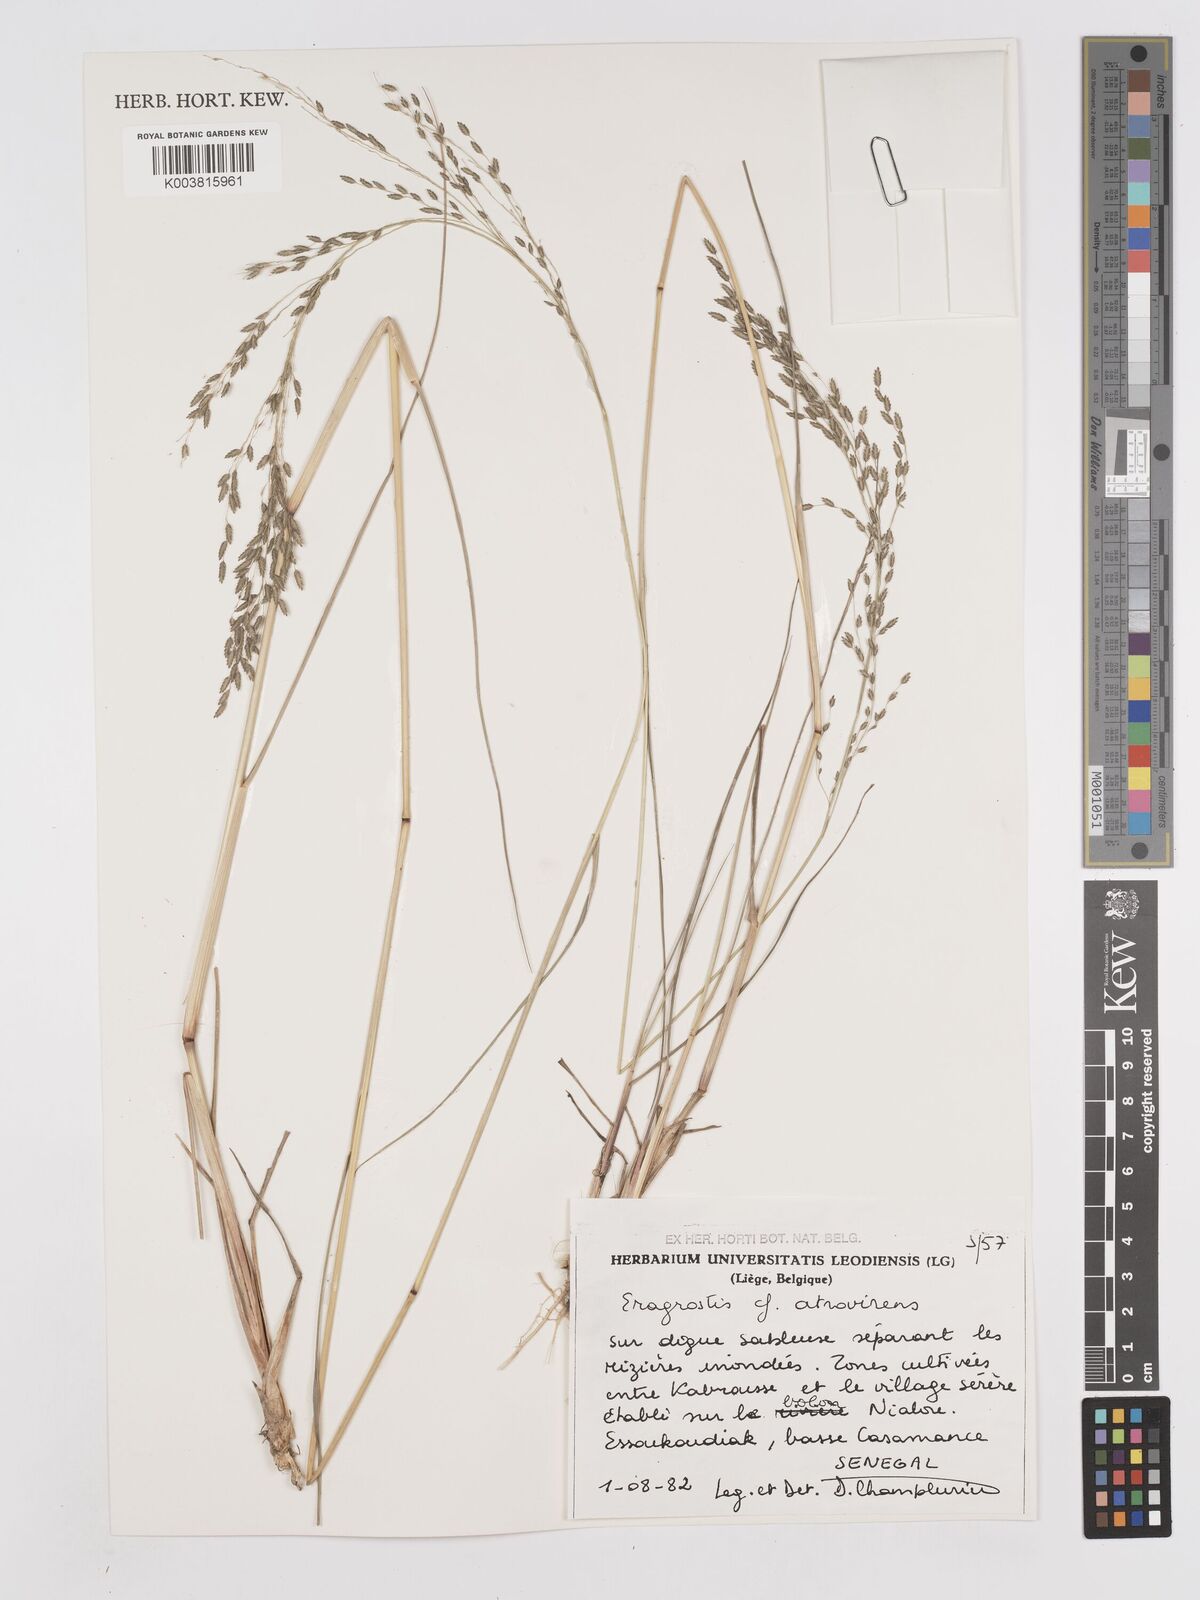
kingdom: Plantae
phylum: Tracheophyta
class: Liliopsida
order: Poales
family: Poaceae
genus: Eragrostis
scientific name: Eragrostis atrovirens
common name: Thalia lovegrass
